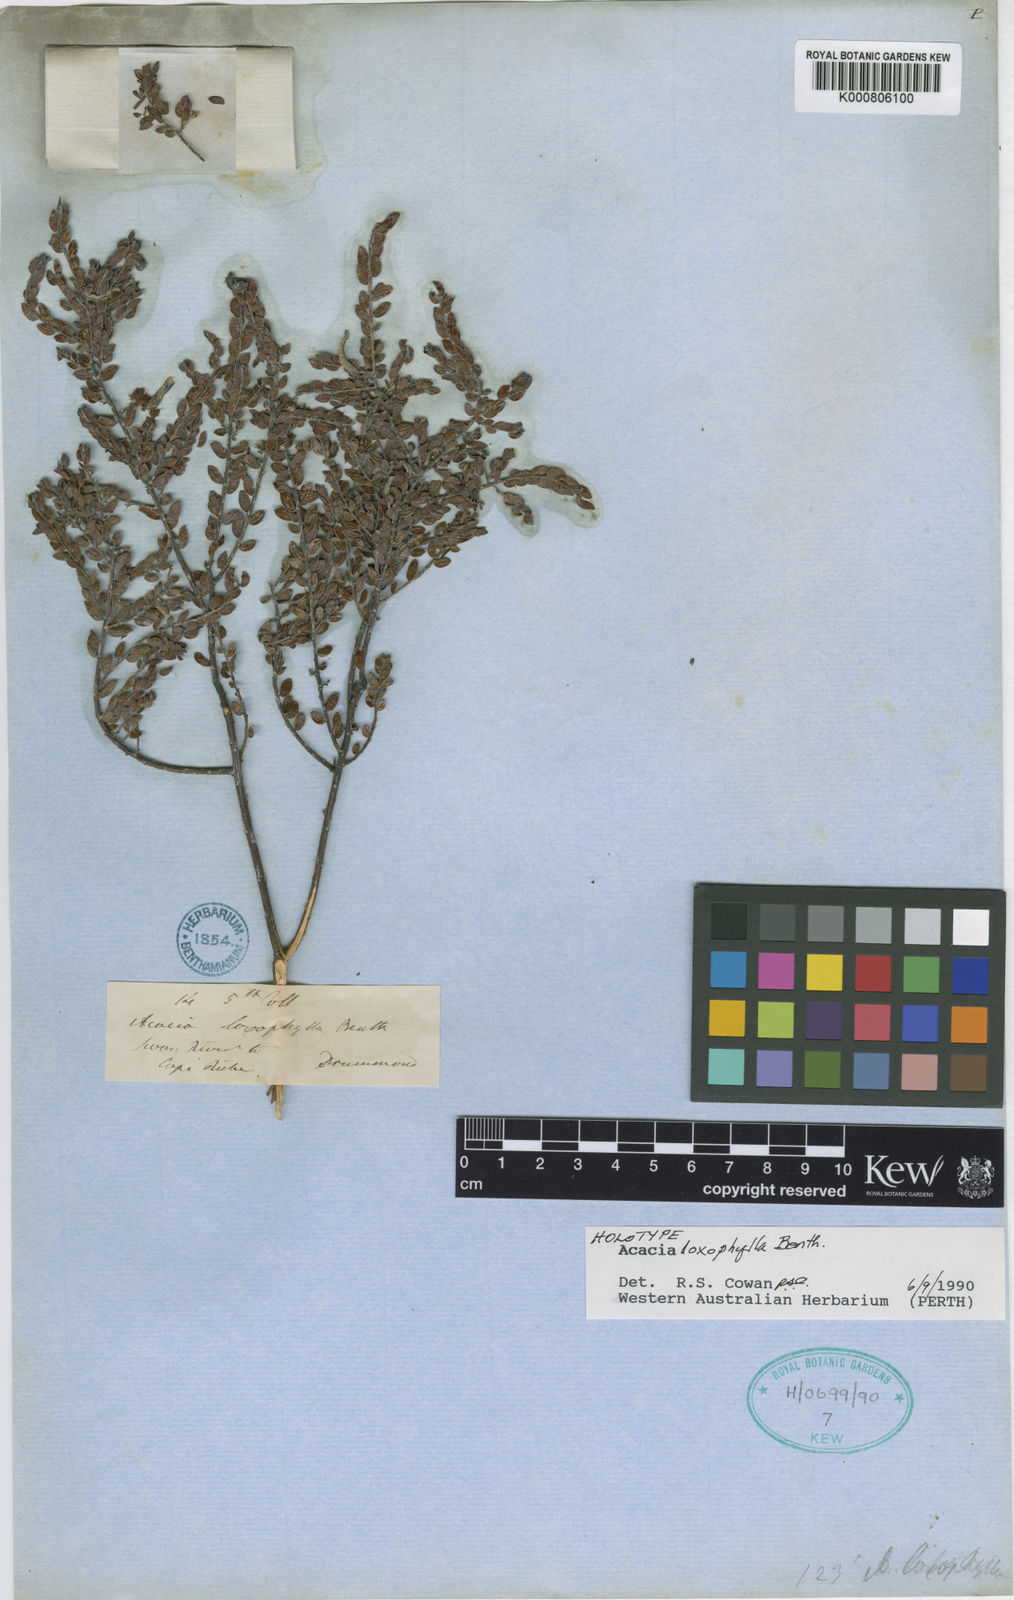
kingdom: Plantae
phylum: Tracheophyta
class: Magnoliopsida
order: Fabales
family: Fabaceae
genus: Acacia
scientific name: Acacia loxophylla
